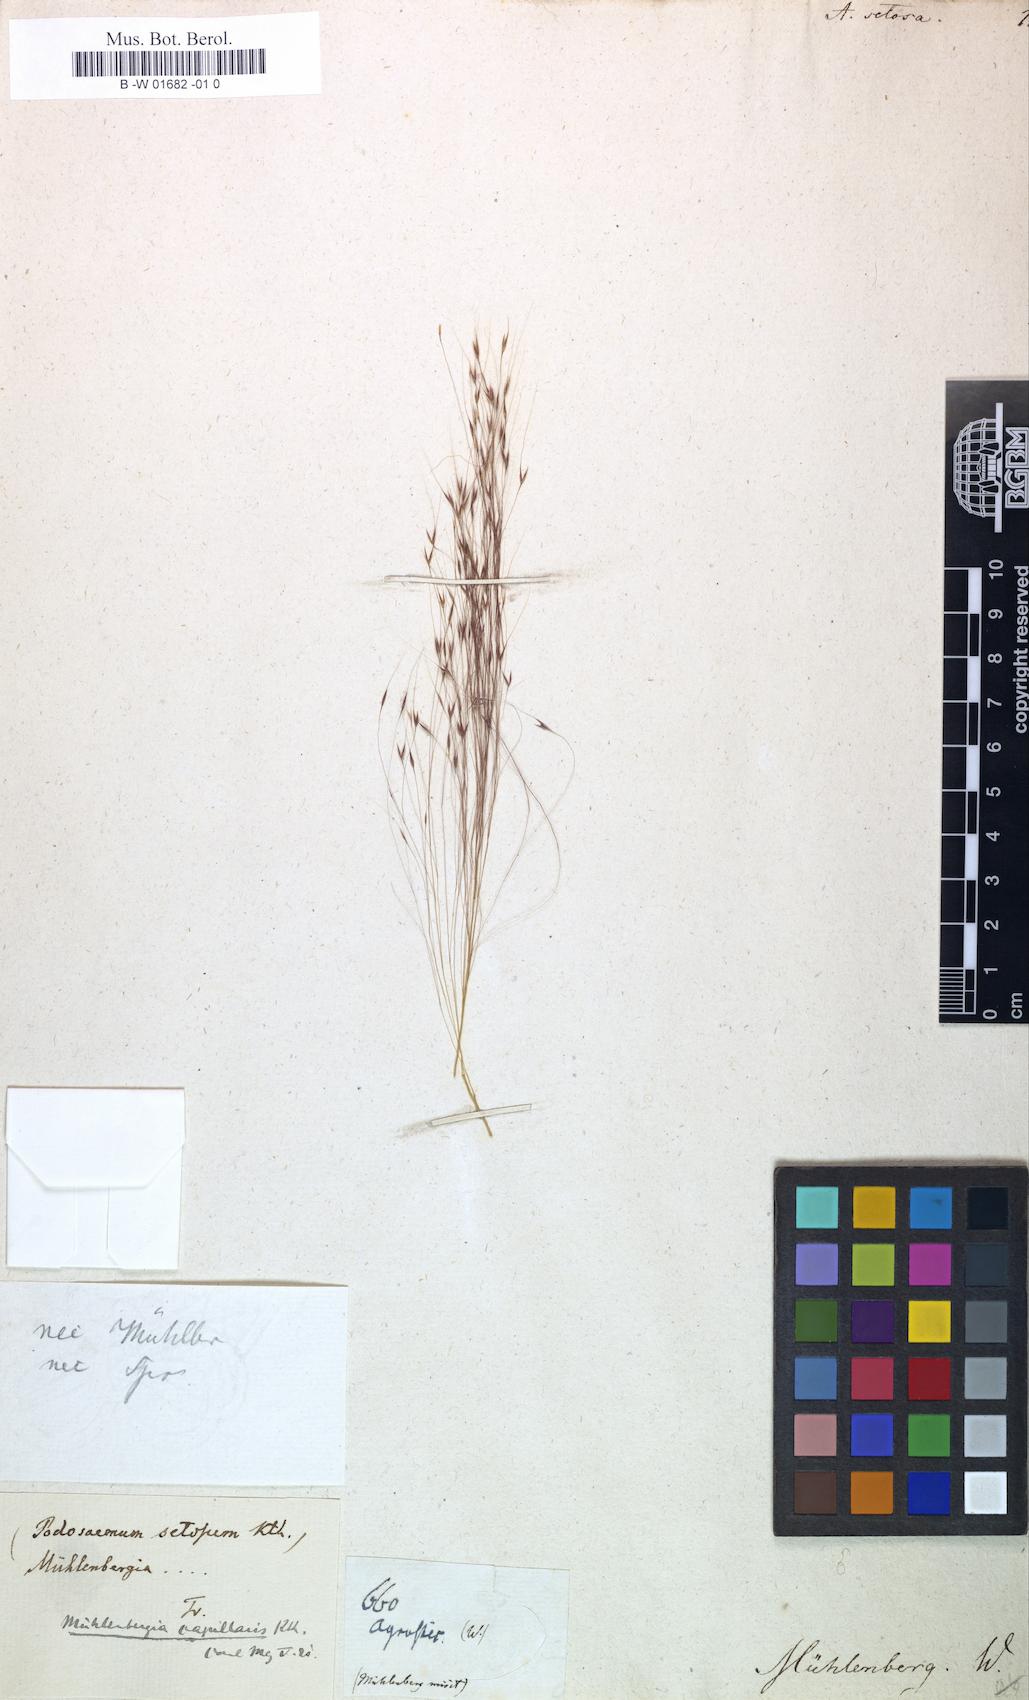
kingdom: Plantae
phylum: Tracheophyta
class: Liliopsida
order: Poales
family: Poaceae
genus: Muhlenbergia
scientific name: Muhlenbergia microsperma
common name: Littleseed muhly
